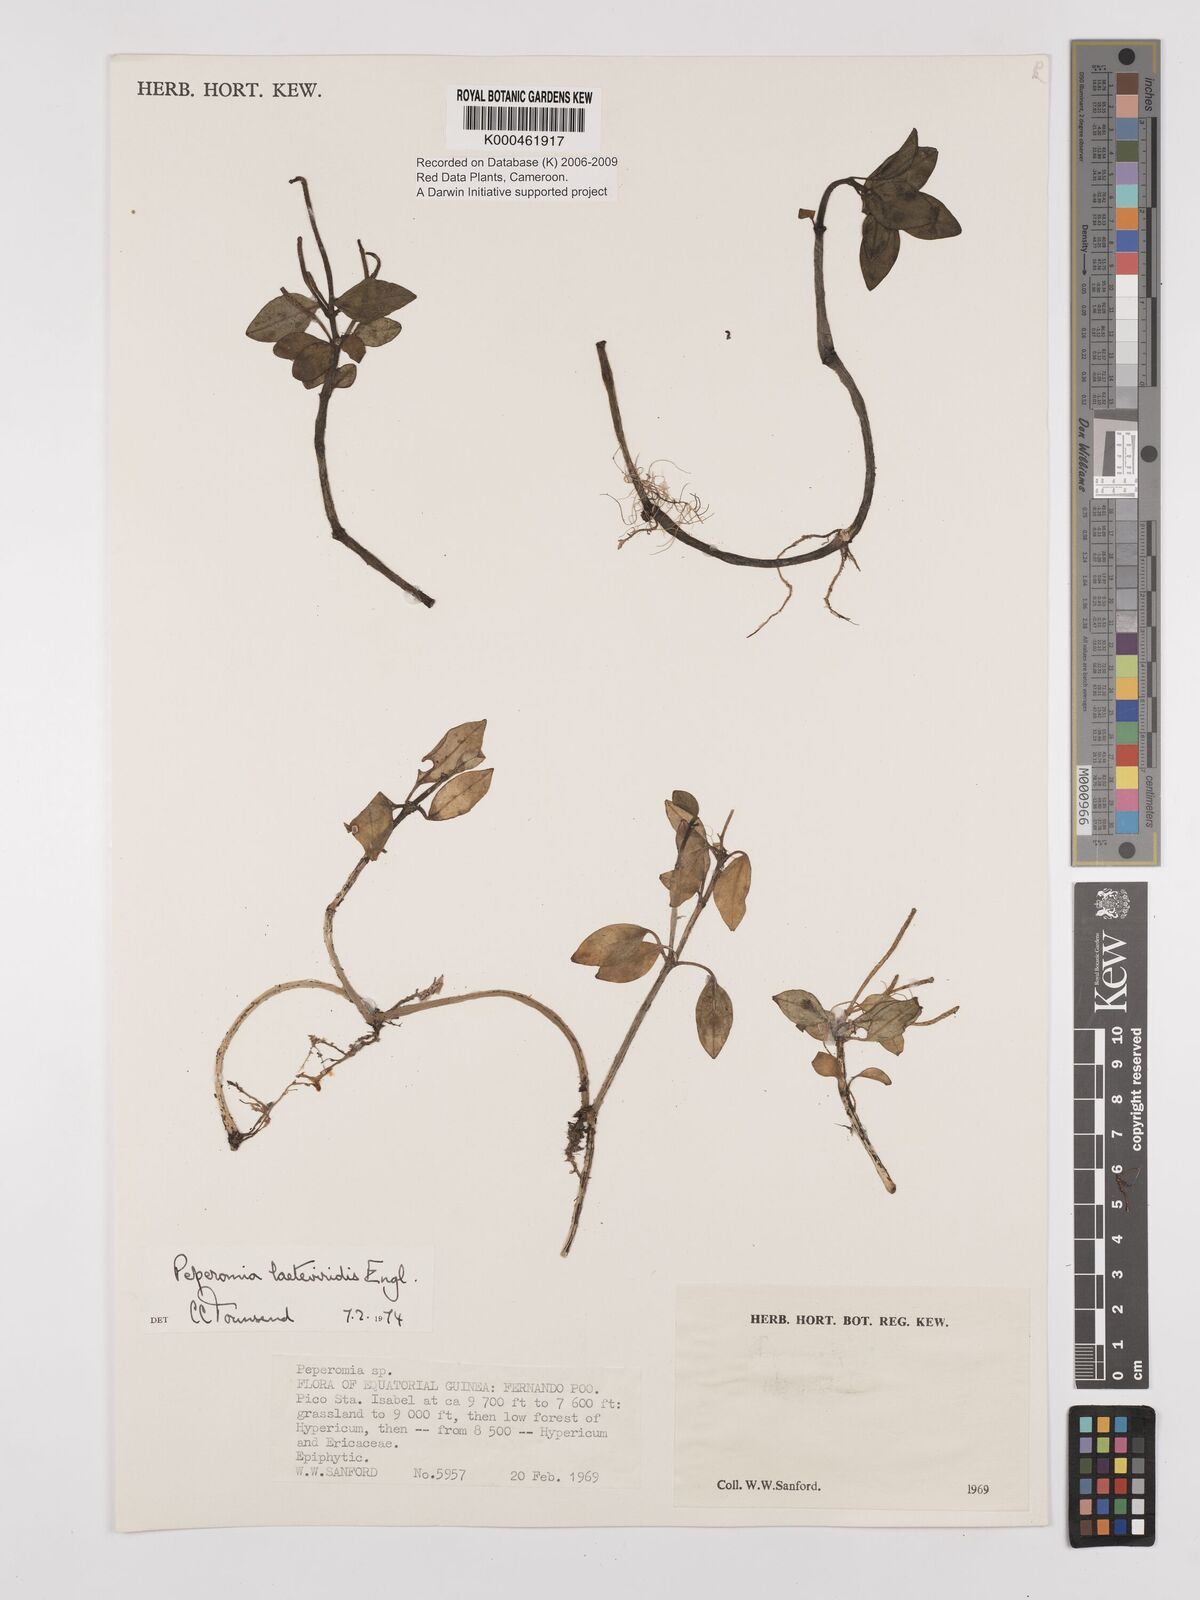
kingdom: Plantae
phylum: Tracheophyta
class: Magnoliopsida
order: Piperales
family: Piperaceae
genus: Peperomia
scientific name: Peperomia laeteviridis
